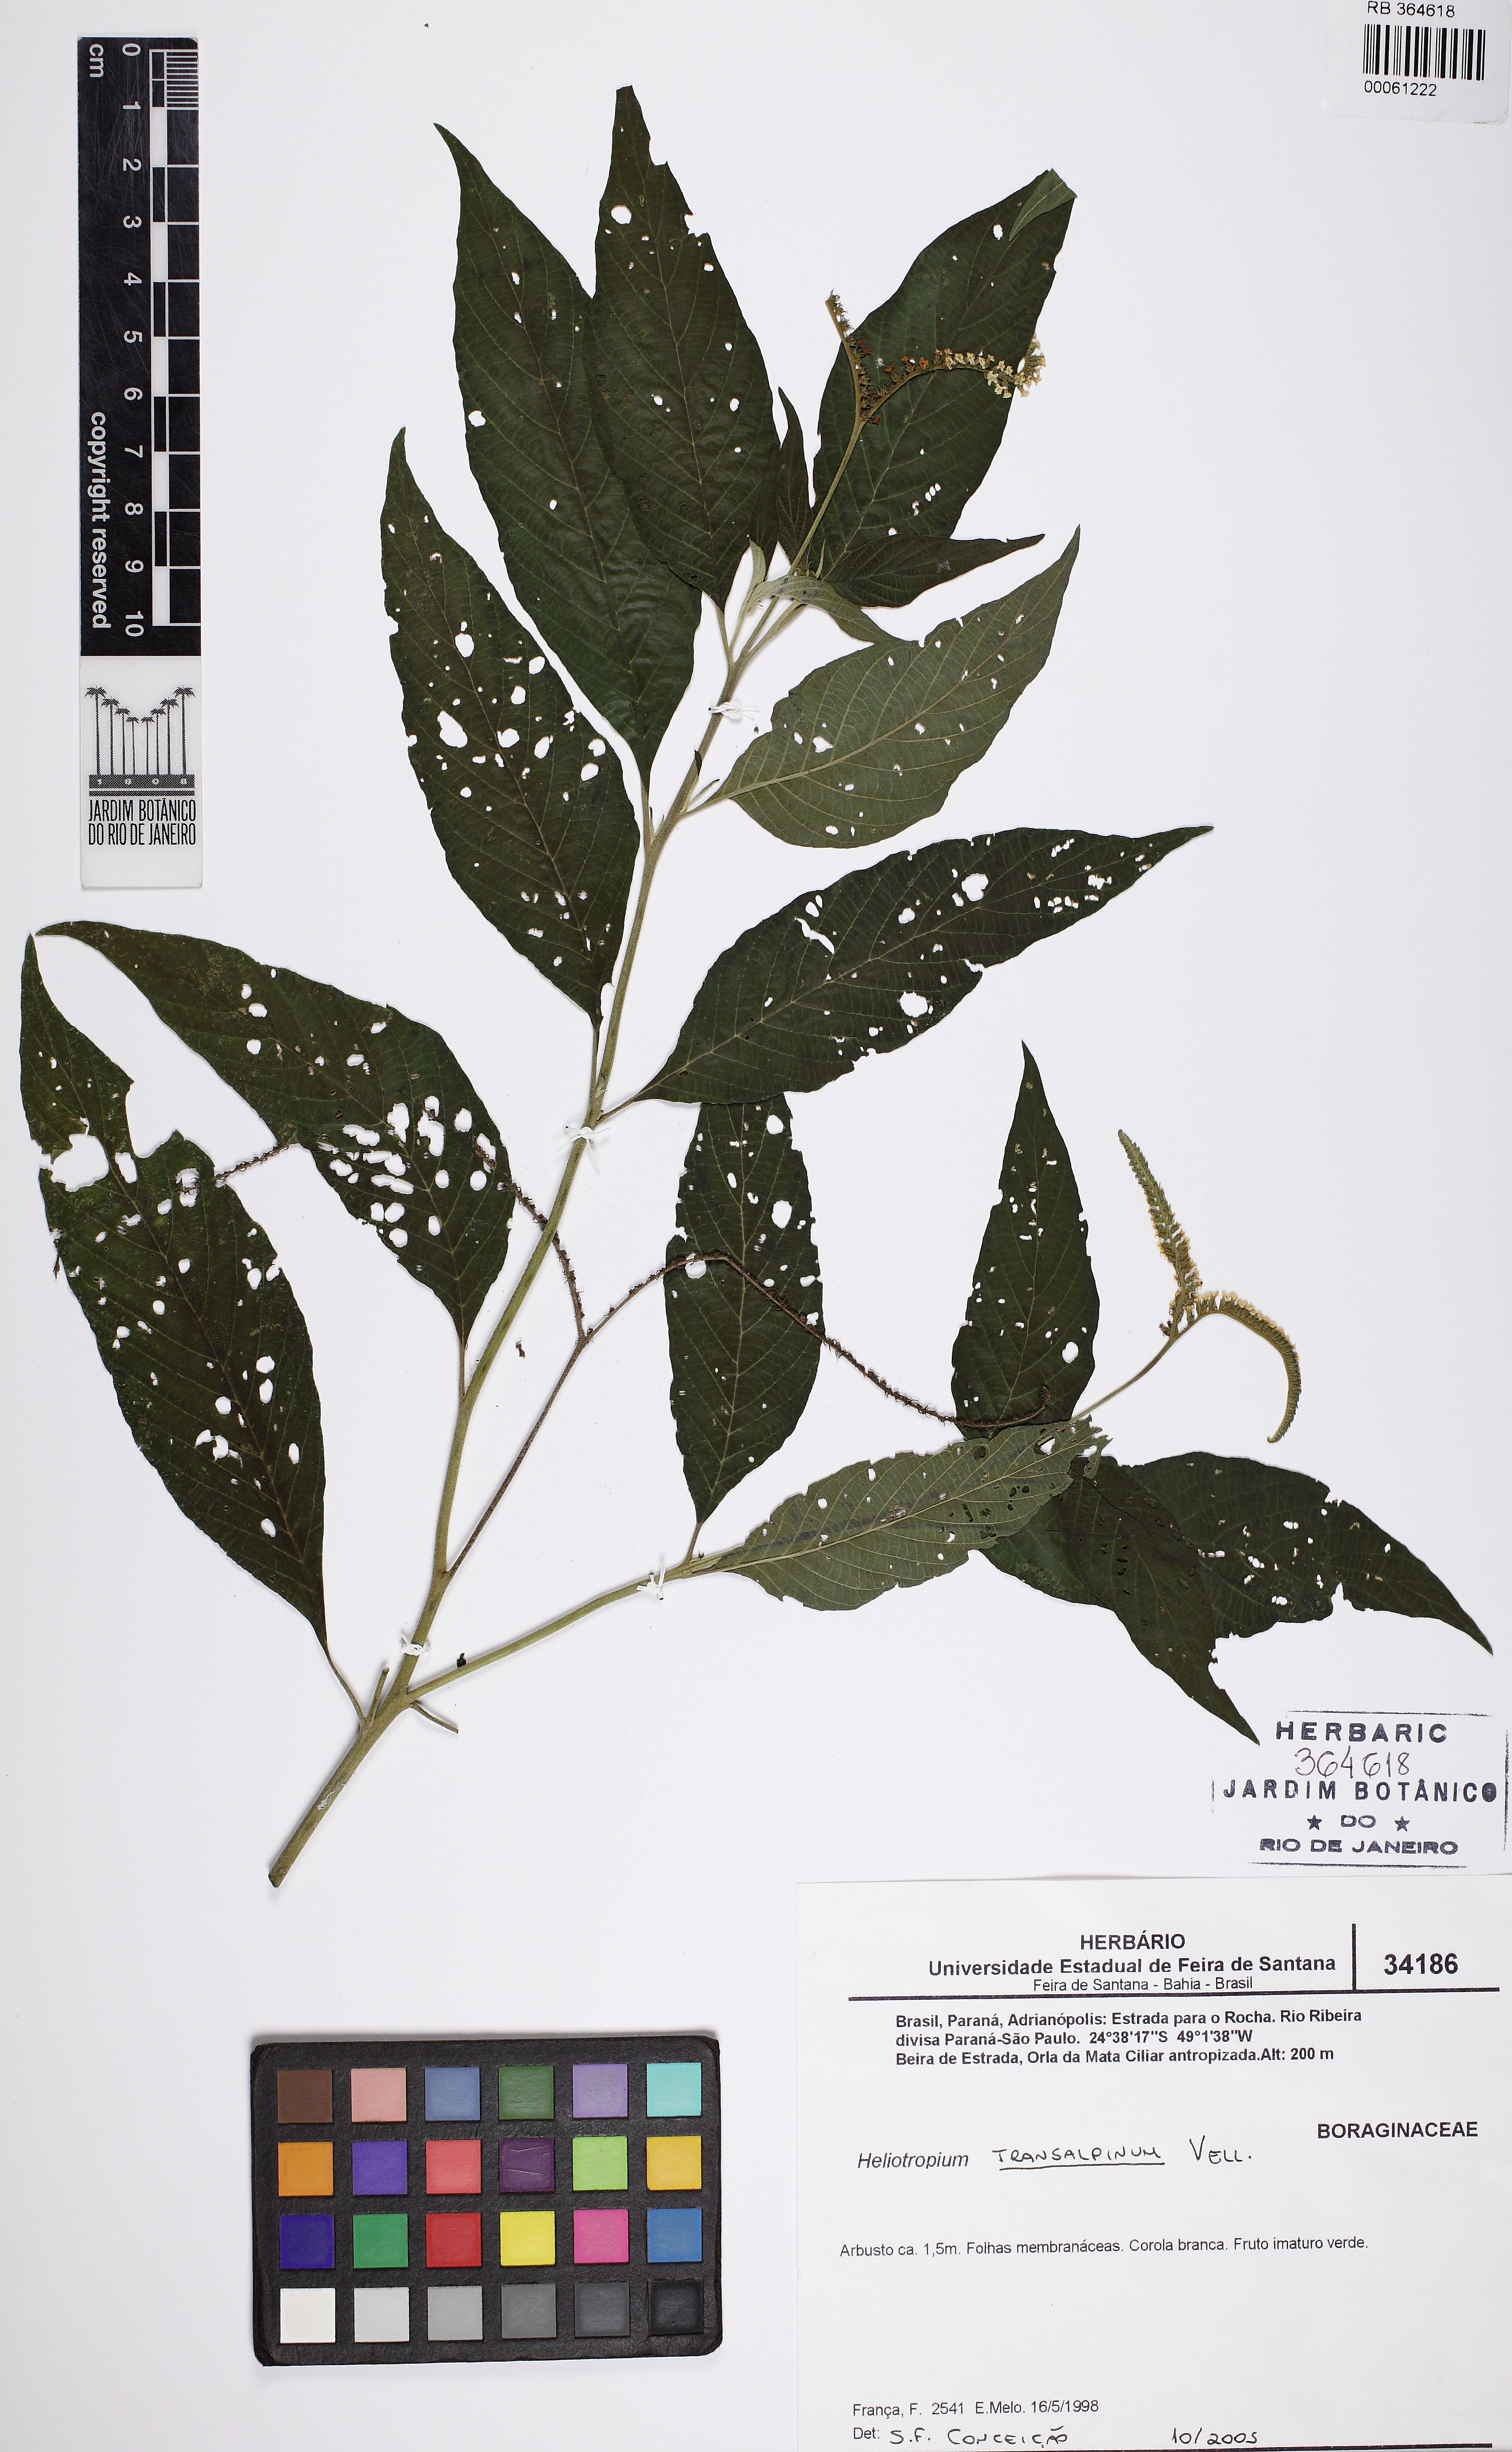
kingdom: Plantae
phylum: Tracheophyta
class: Magnoliopsida
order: Boraginales
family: Heliotropiaceae
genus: Heliotropium
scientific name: Heliotropium transalpinum
